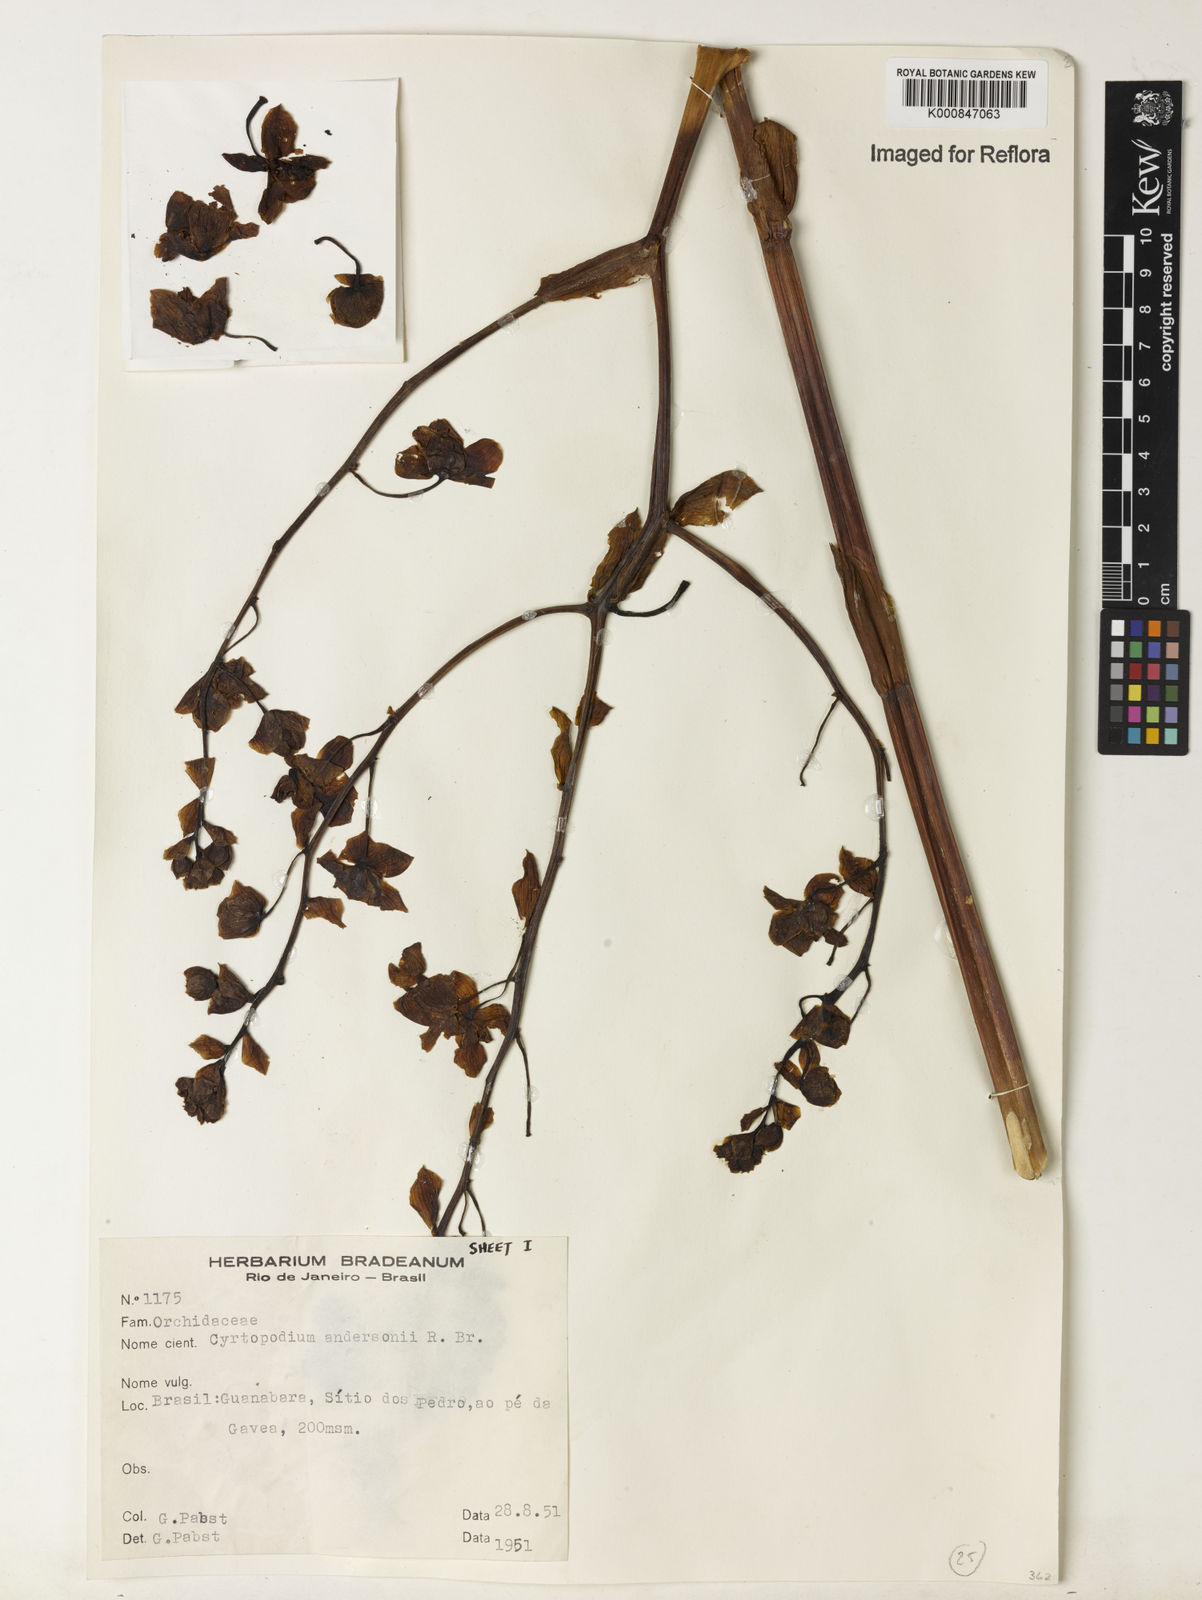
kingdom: Plantae
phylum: Tracheophyta
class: Liliopsida
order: Asparagales
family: Orchidaceae
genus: Cyrtopodium
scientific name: Cyrtopodium andersonii
